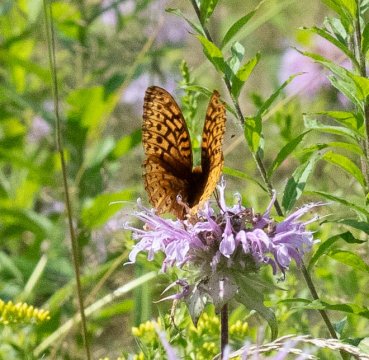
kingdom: Animalia
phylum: Arthropoda
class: Insecta
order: Lepidoptera
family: Nymphalidae
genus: Speyeria
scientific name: Speyeria cybele
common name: Great Spangled Fritillary
